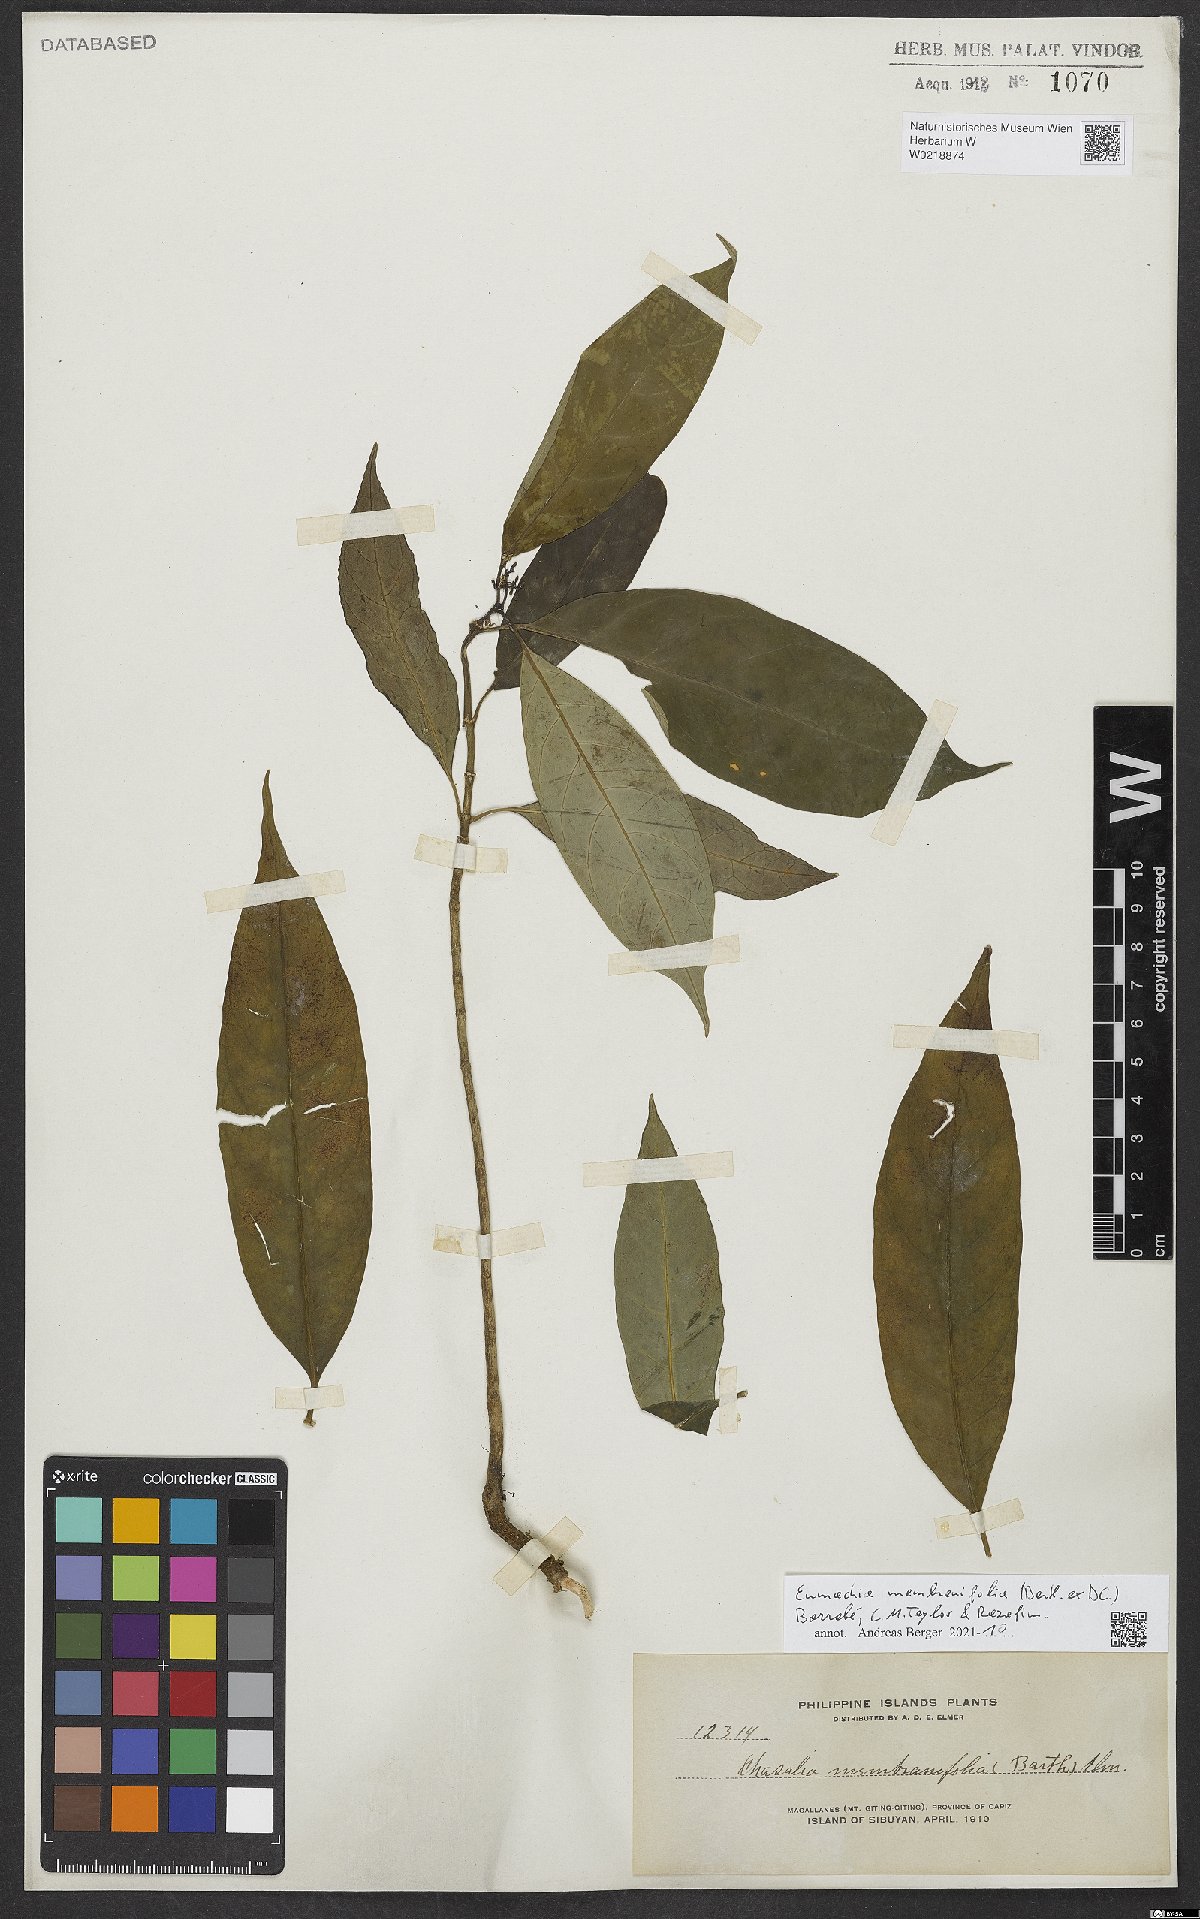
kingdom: Plantae
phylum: Tracheophyta
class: Magnoliopsida
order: Gentianales
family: Rubiaceae
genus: Eumachia
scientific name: Eumachia membranifolia
